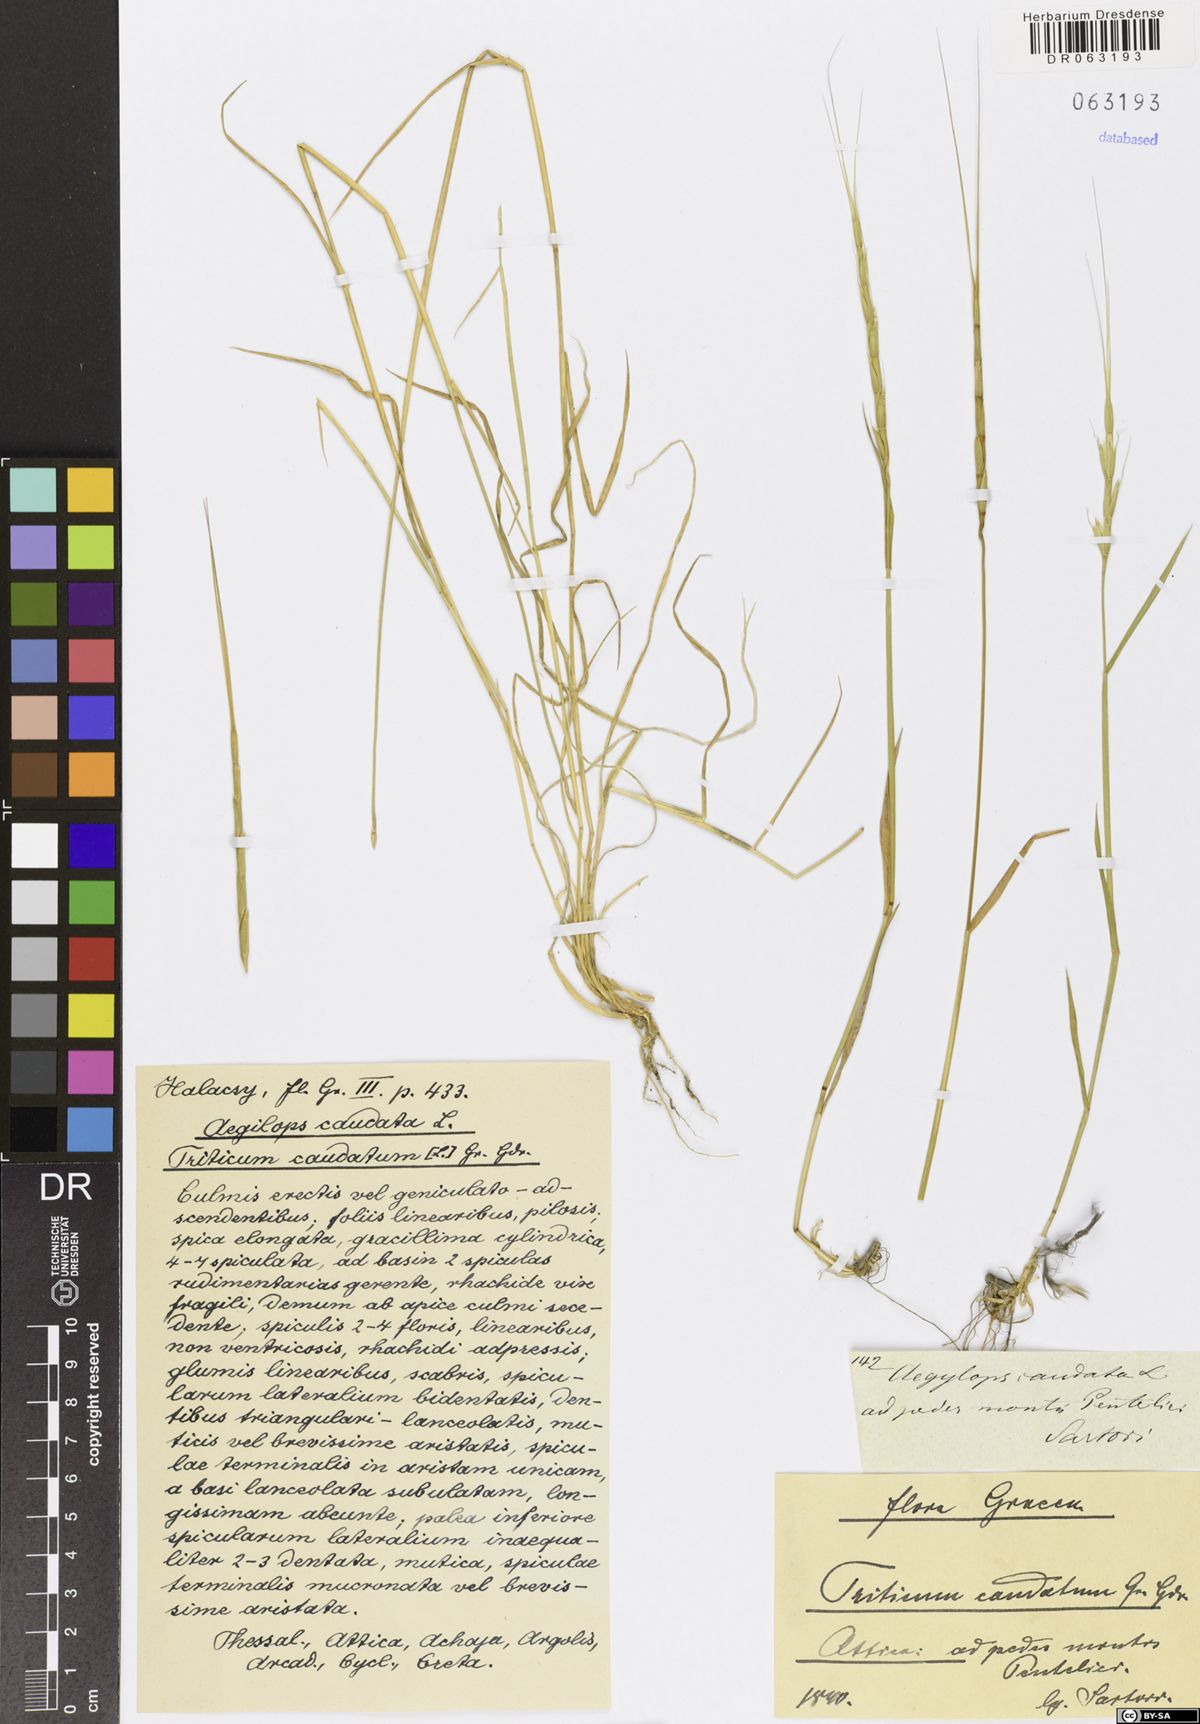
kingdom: Plantae
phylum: Tracheophyta
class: Liliopsida
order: Poales
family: Poaceae
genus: Aegilops
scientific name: Aegilops caudata
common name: Cretan hard-grass
